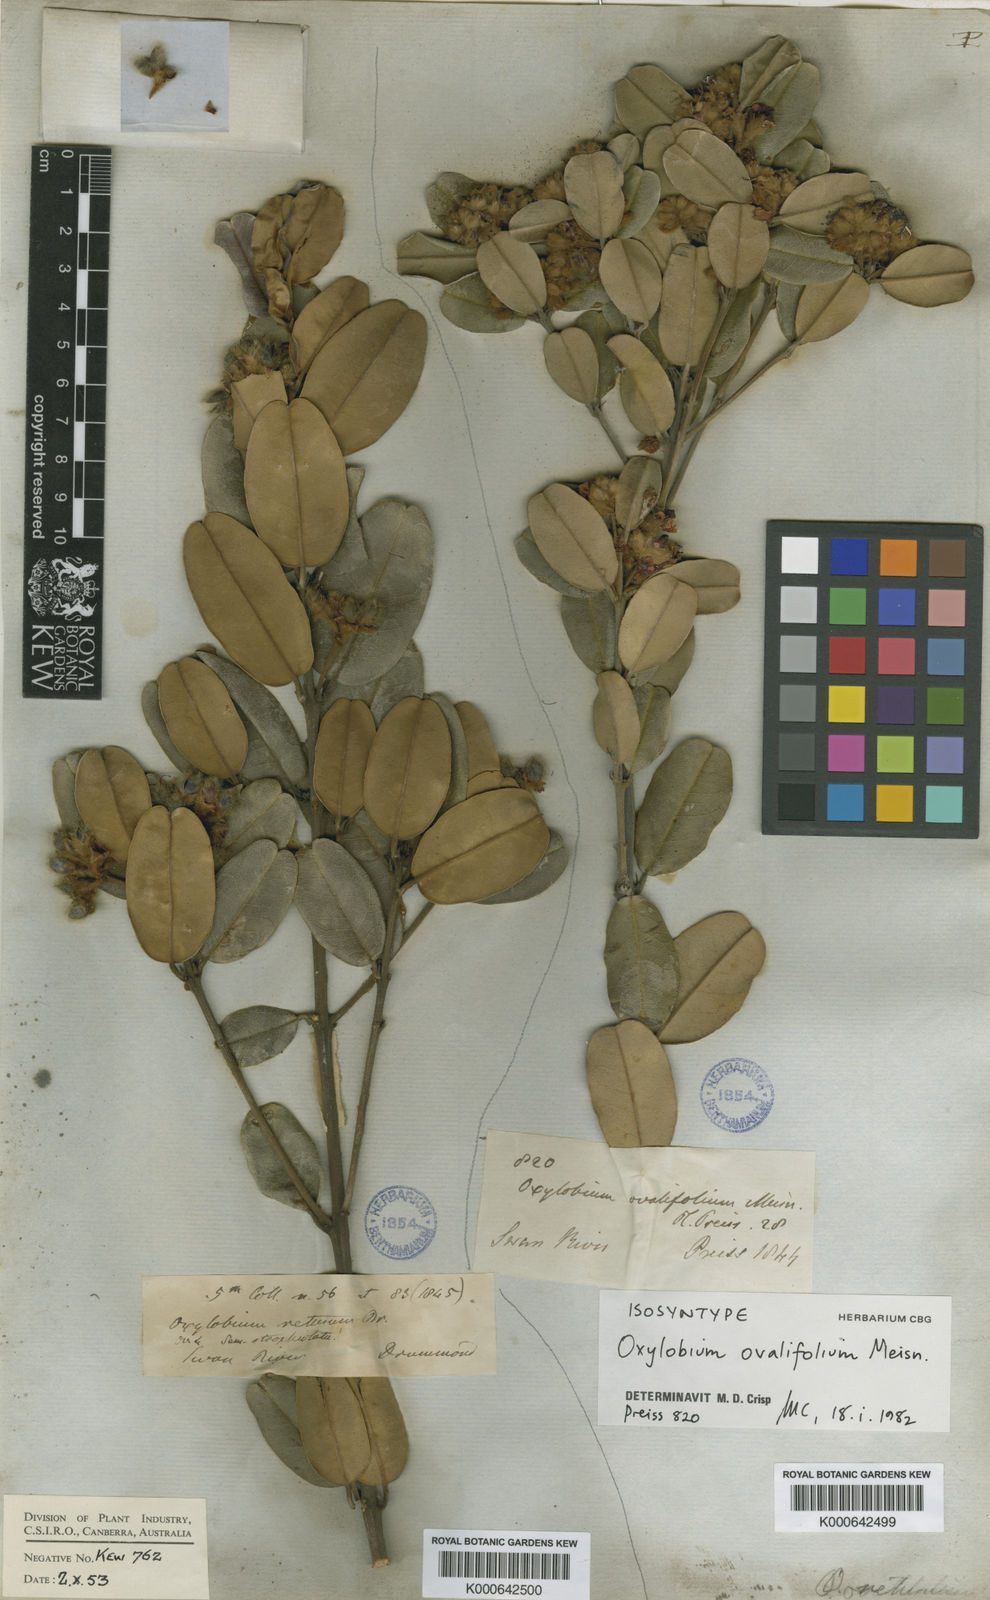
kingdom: Plantae
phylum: Tracheophyta
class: Magnoliopsida
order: Fabales
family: Fabaceae
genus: Gastrolobium
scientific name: Gastrolobium coriaceum
